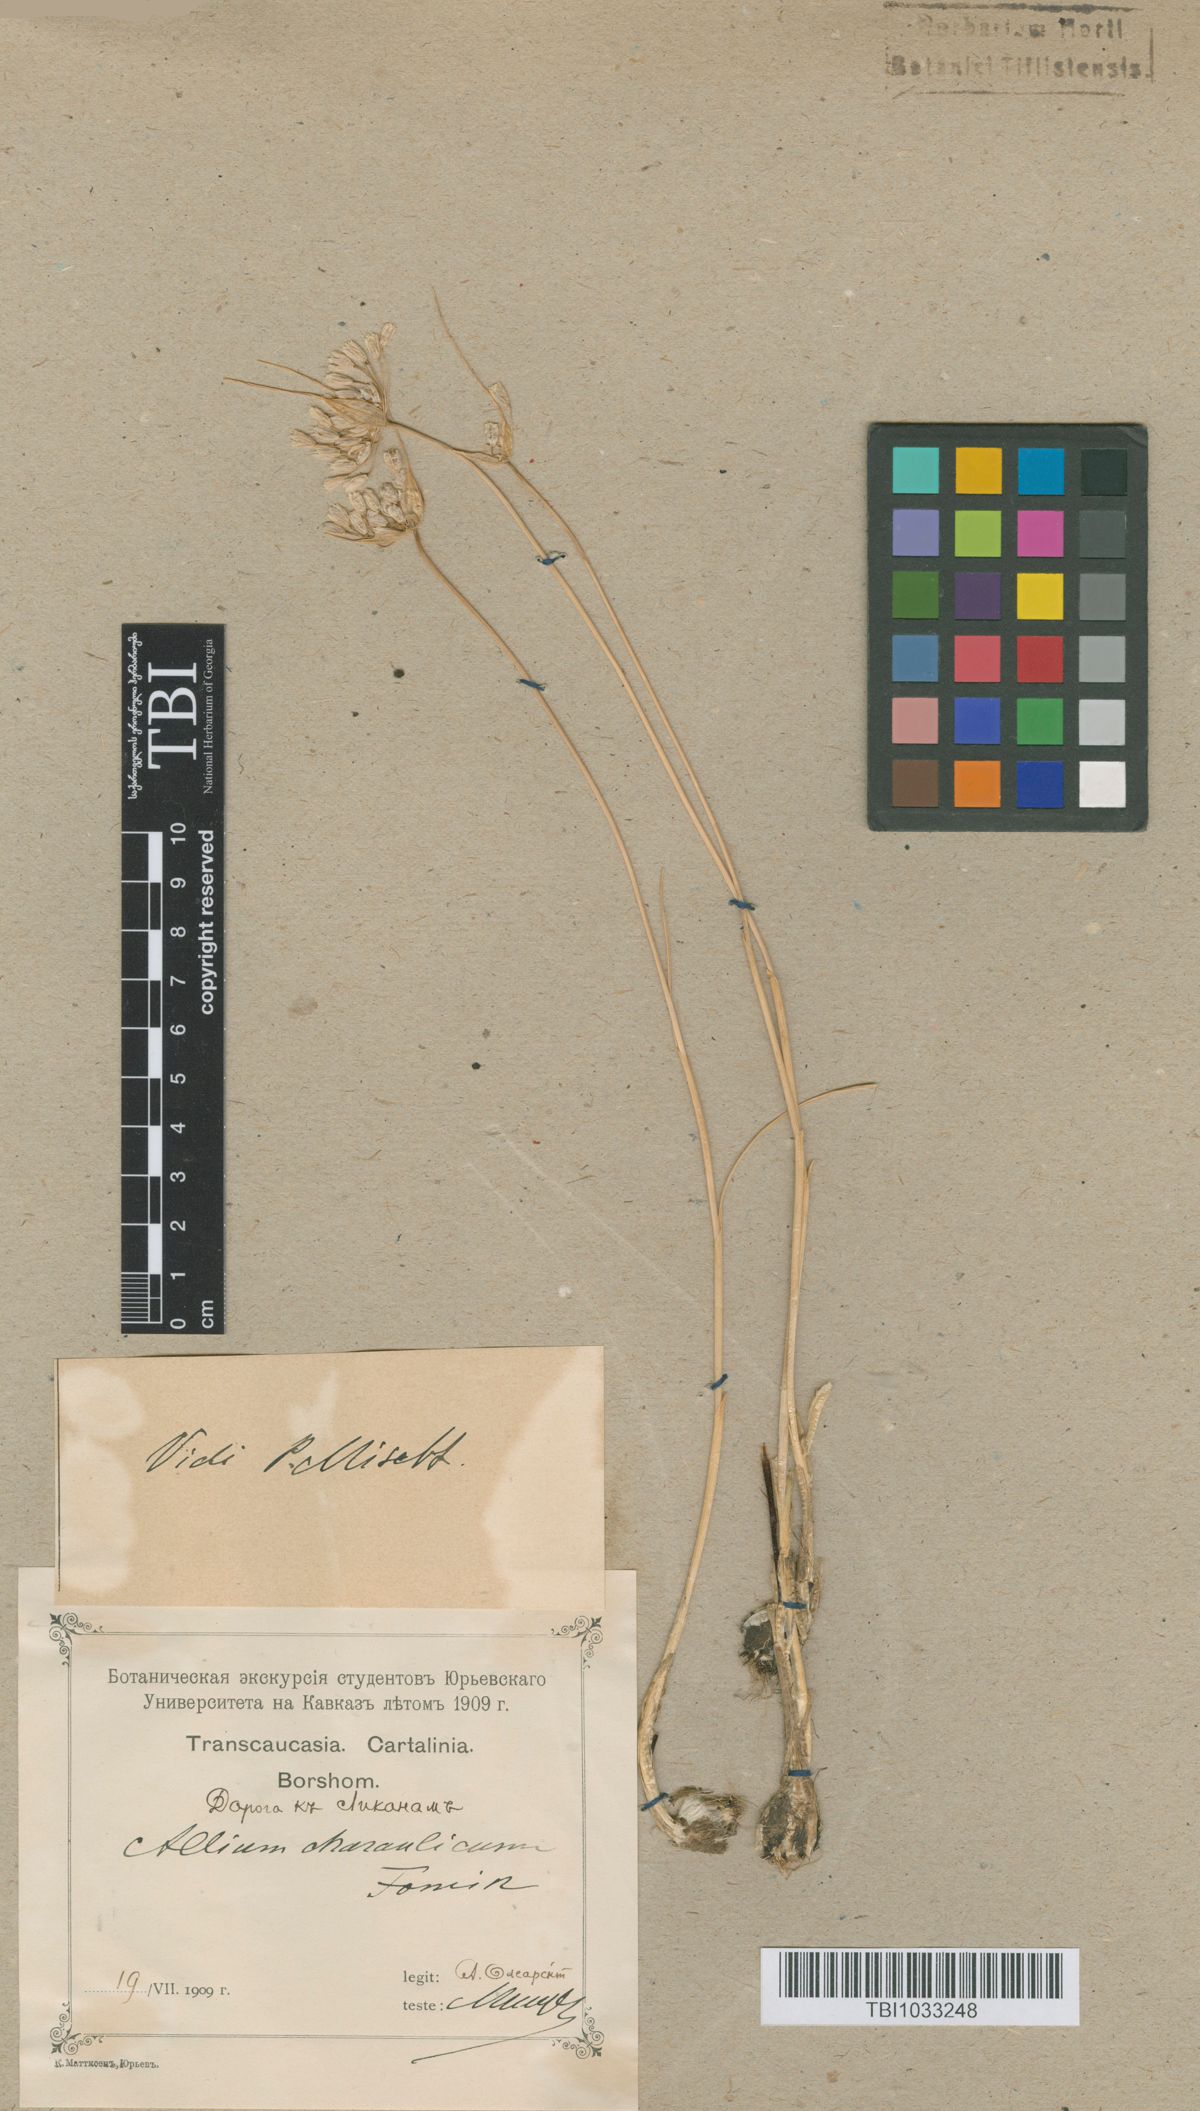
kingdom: Plantae
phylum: Tracheophyta
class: Liliopsida
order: Asparagales
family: Amaryllidaceae
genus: Allium
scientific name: Allium rupestre
